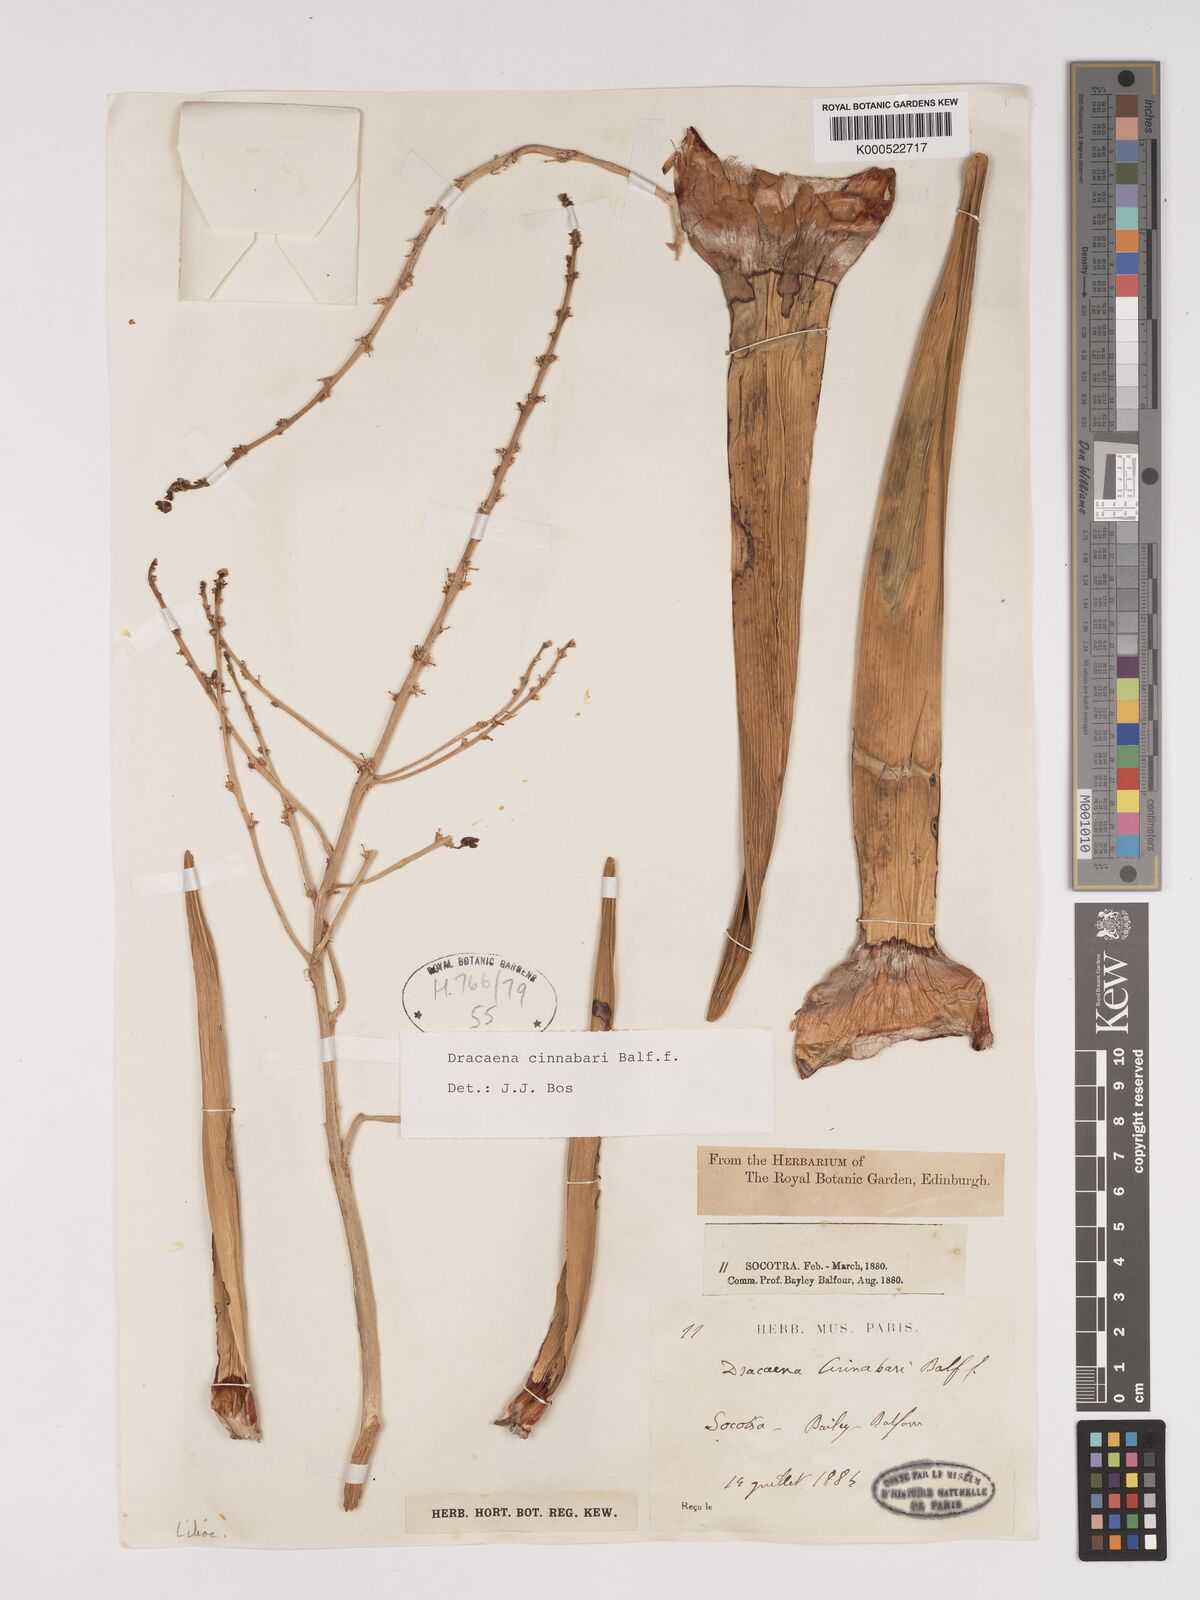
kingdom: Plantae
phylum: Tracheophyta
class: Liliopsida
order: Asparagales
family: Asparagaceae
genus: Dracaena
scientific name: Dracaena cinnabari
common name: Dragon's blood tree
